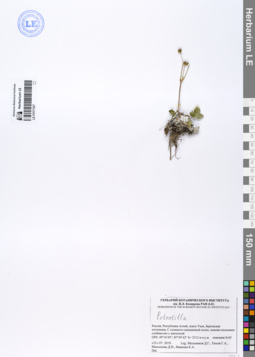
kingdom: Plantae
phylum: Tracheophyta
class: Magnoliopsida
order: Rosales
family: Rosaceae
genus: Potentilla
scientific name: Potentilla
